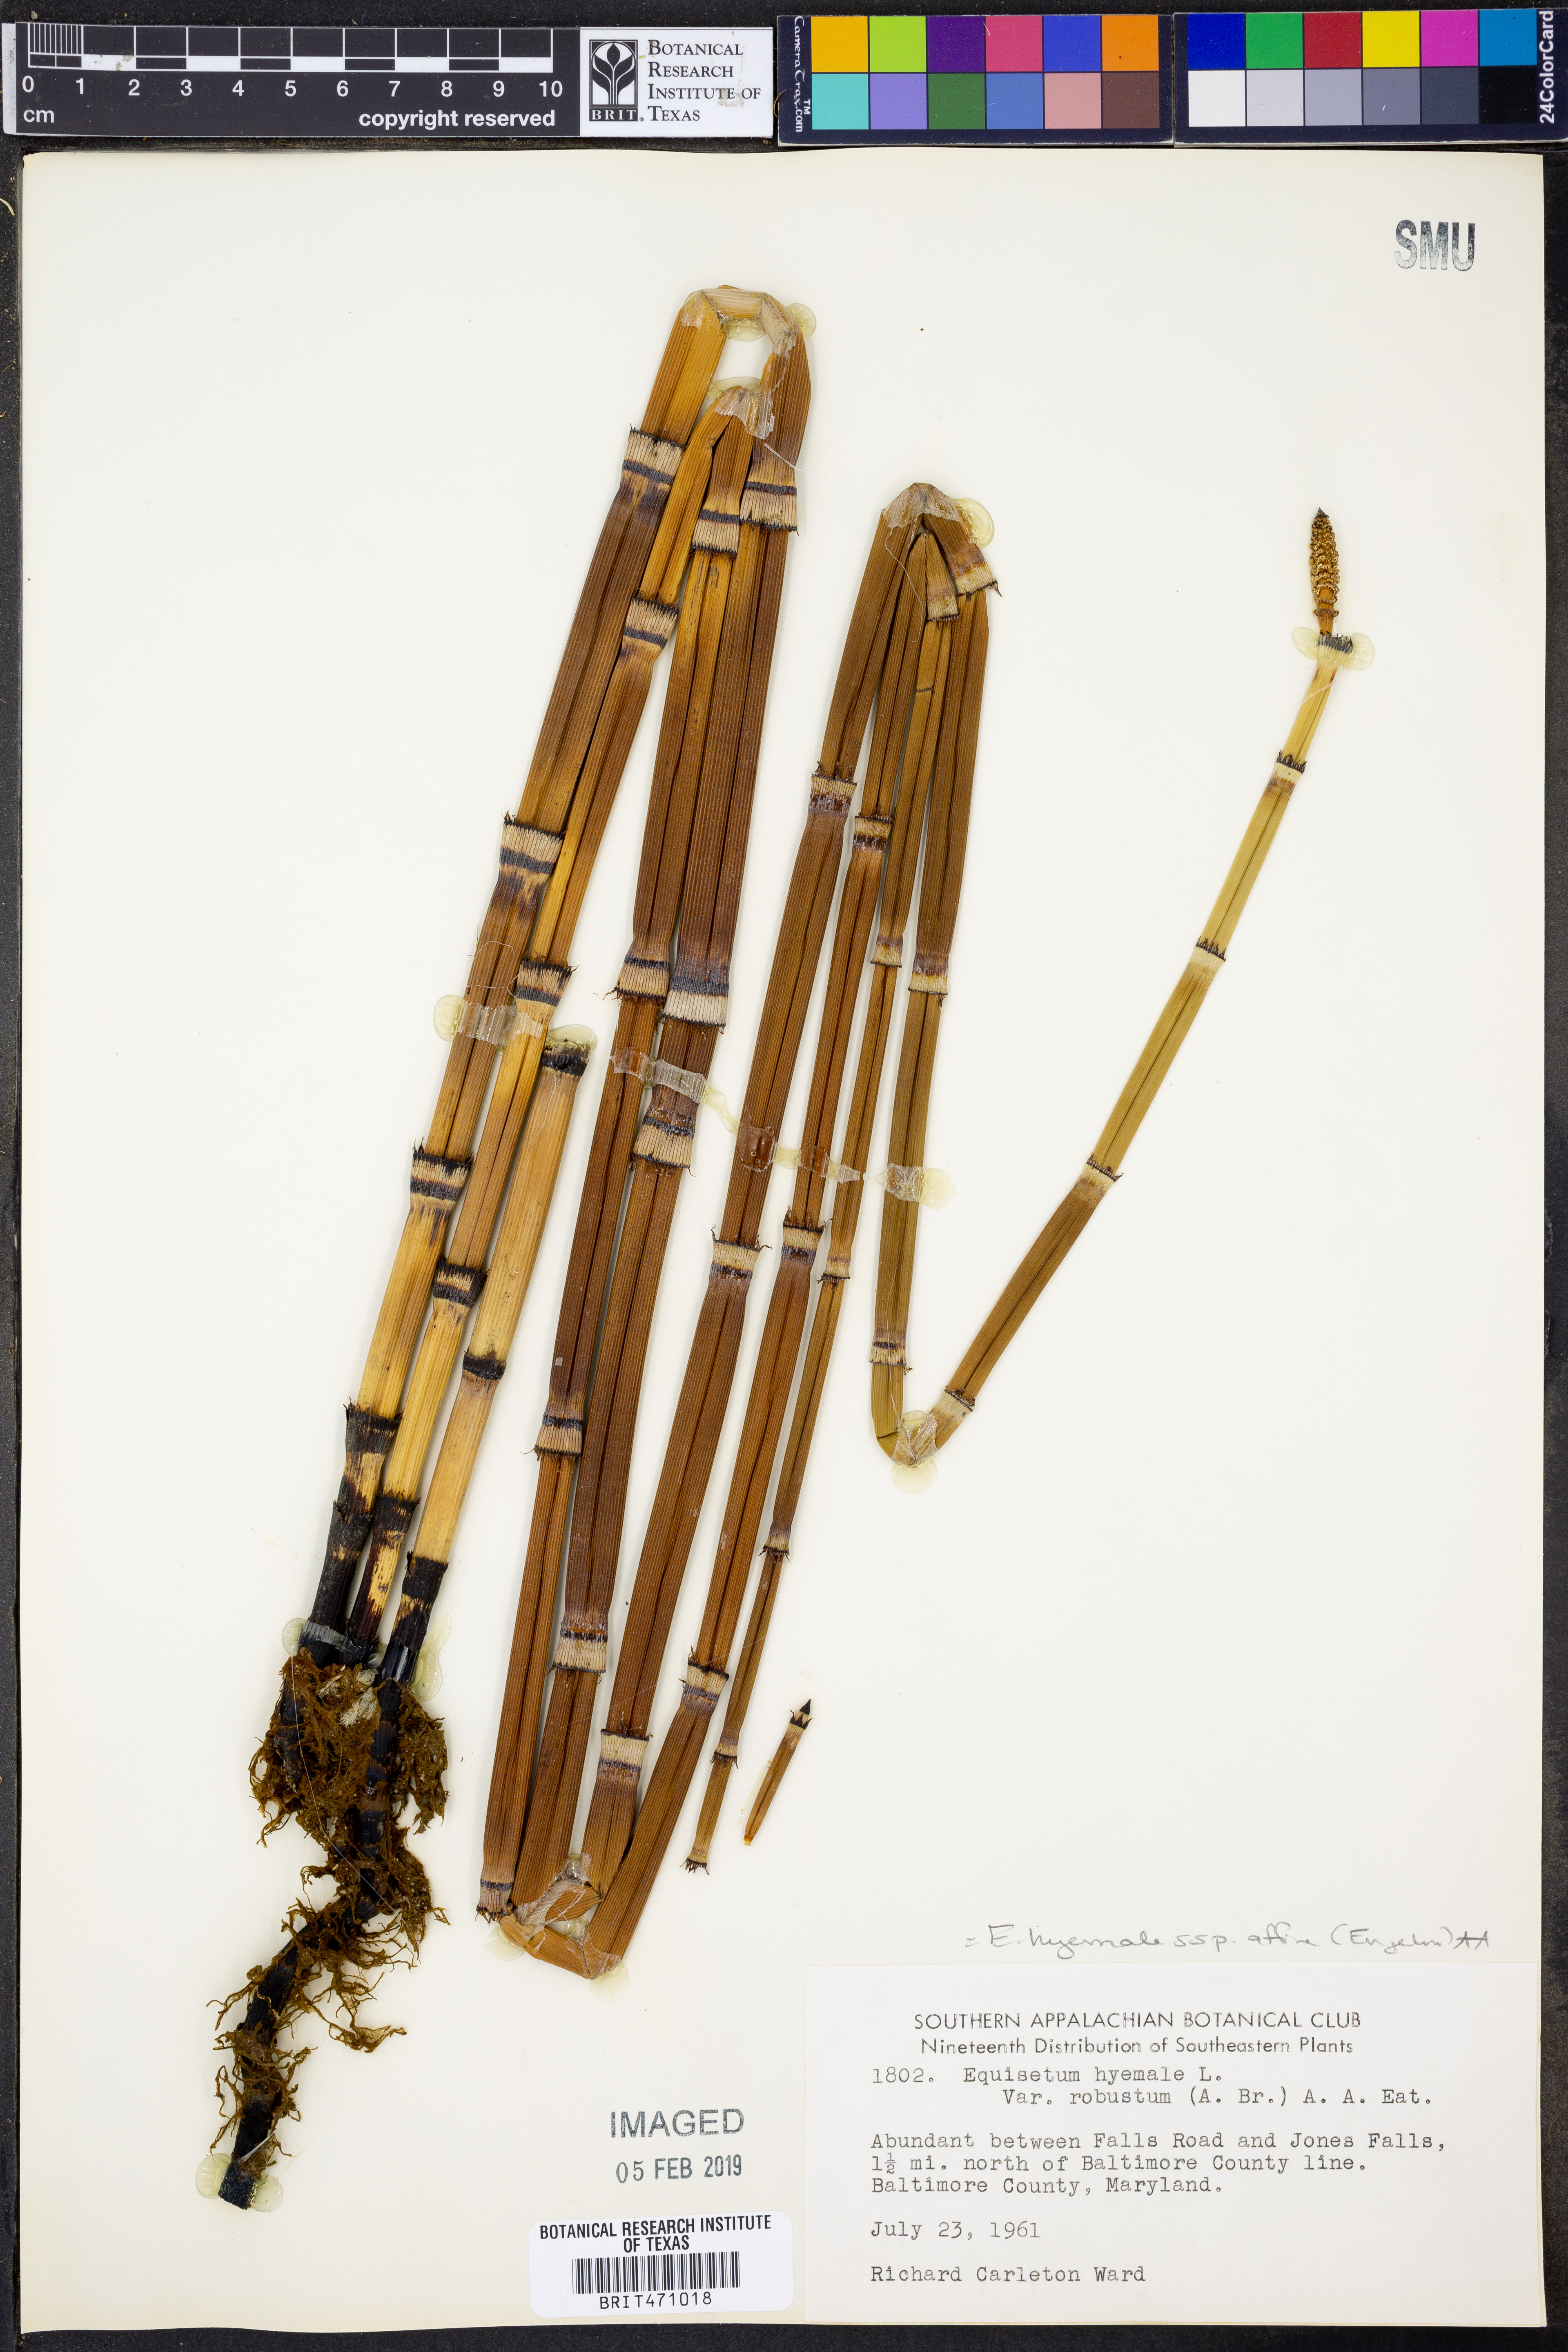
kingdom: Plantae
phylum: Tracheophyta
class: Polypodiopsida
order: Equisetales
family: Equisetaceae
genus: Equisetum
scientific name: Equisetum praealtum
